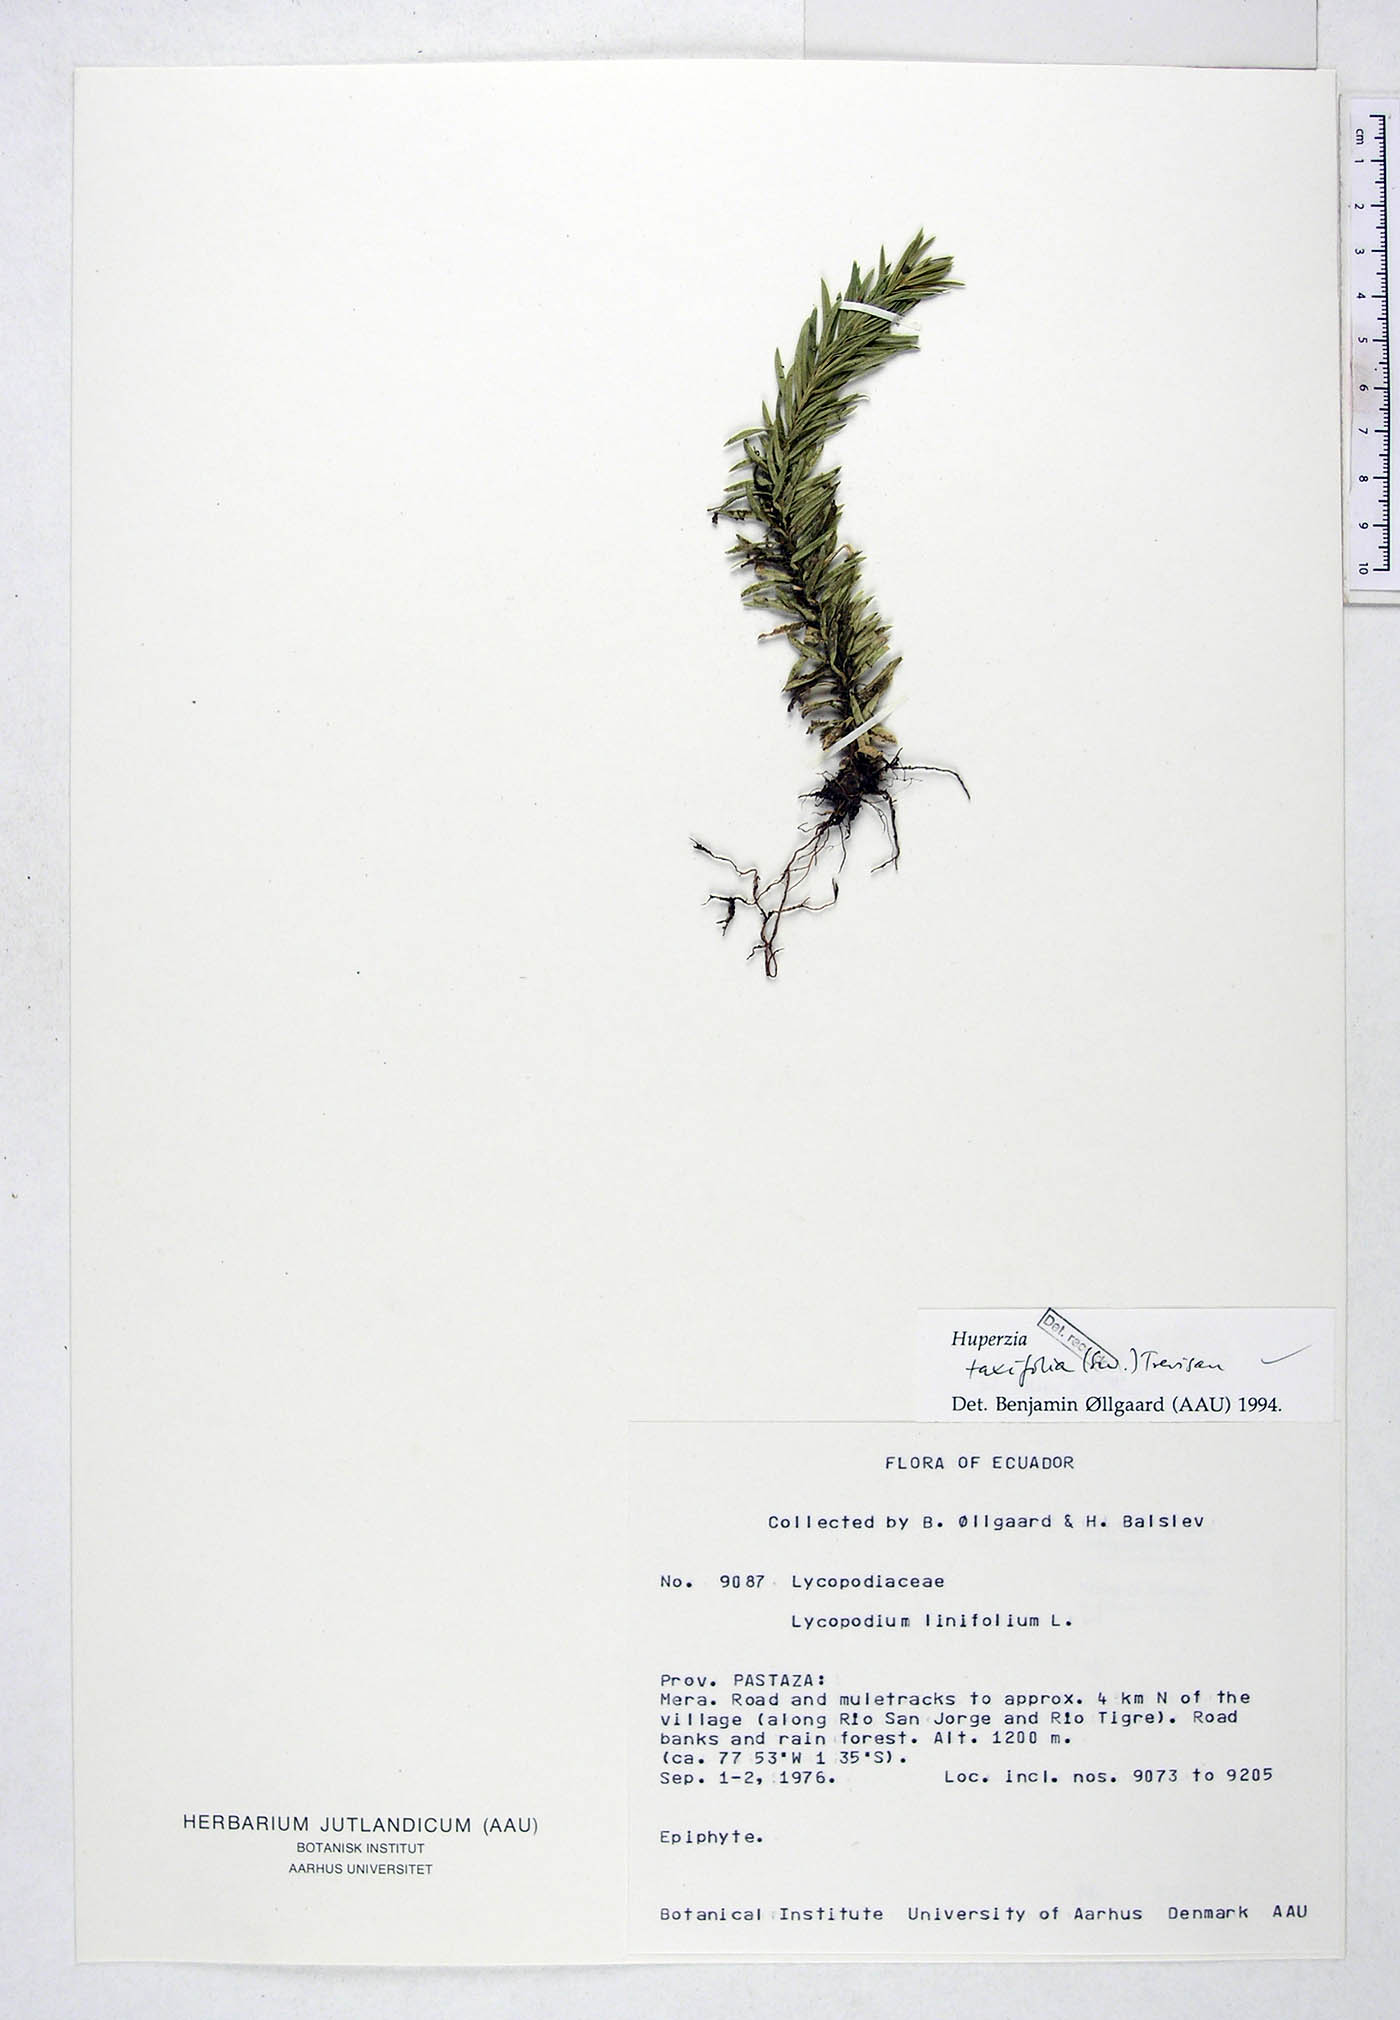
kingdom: Plantae
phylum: Tracheophyta
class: Lycopodiopsida
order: Lycopodiales
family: Lycopodiaceae
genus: Phlegmariurus
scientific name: Phlegmariurus taxifolius
